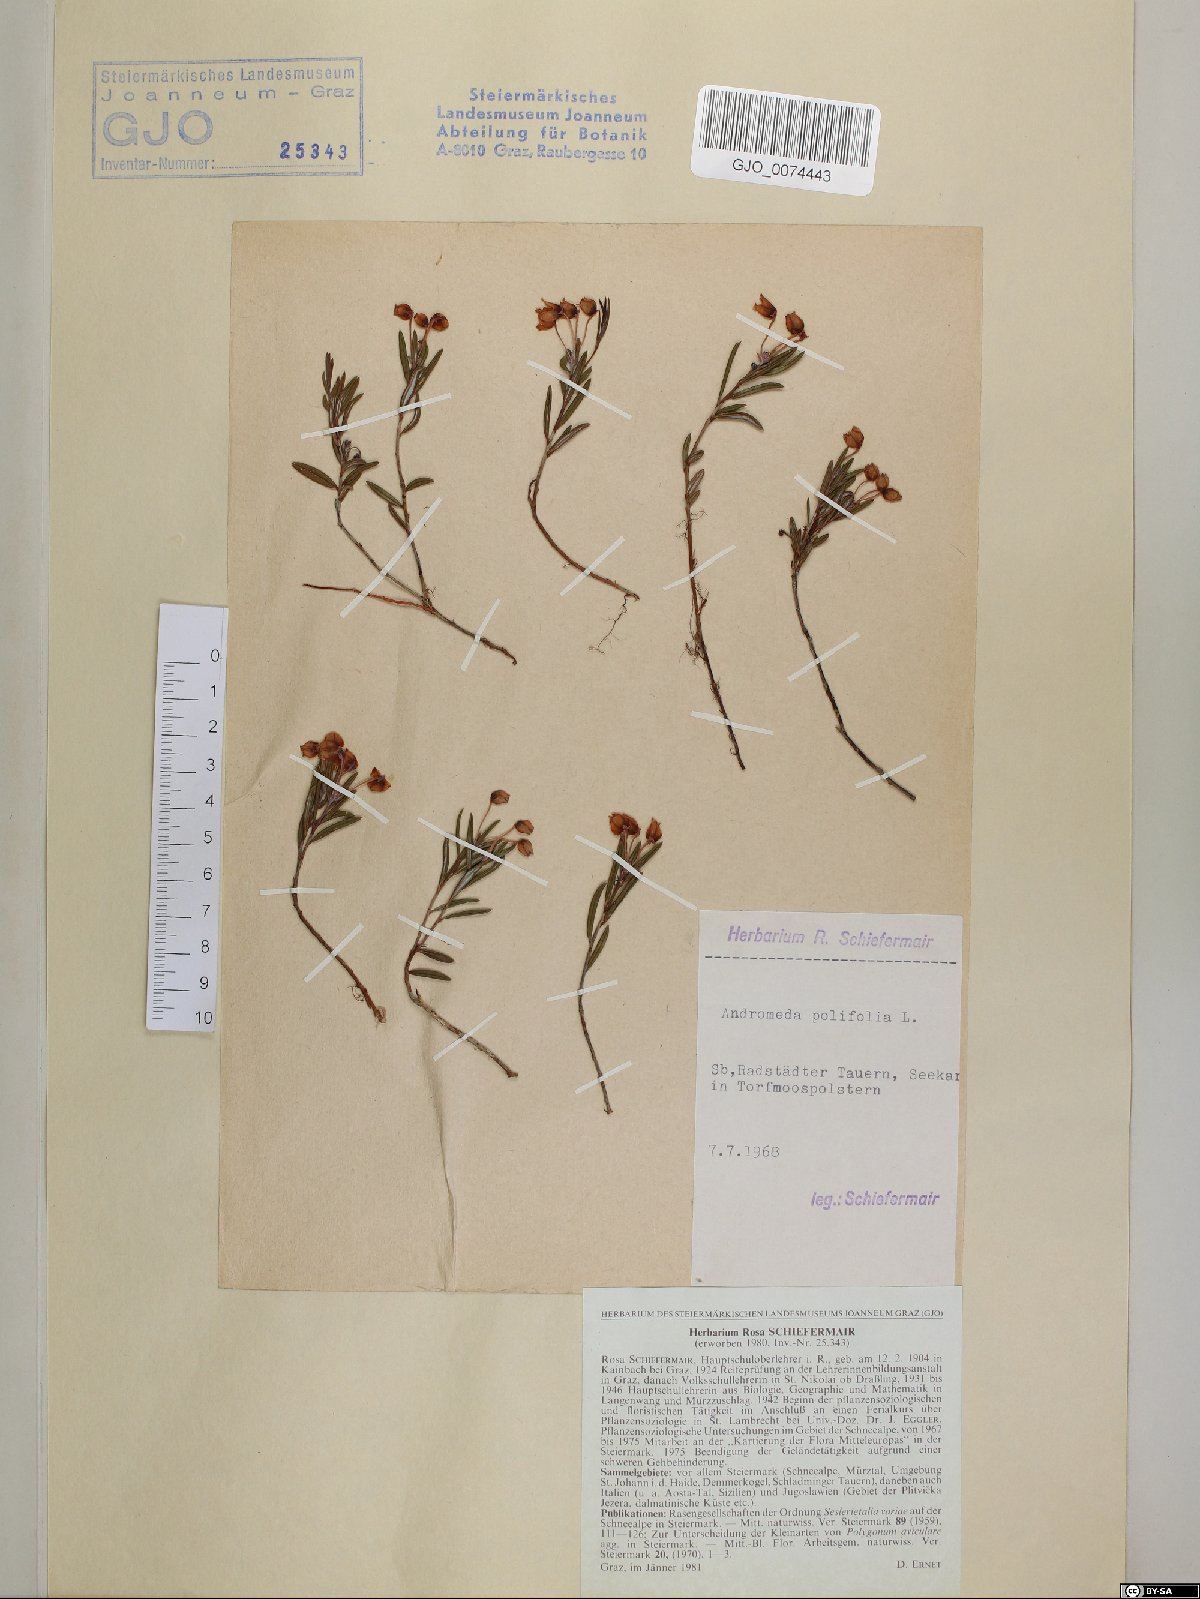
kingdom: Plantae
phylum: Tracheophyta
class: Magnoliopsida
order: Ericales
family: Ericaceae
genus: Andromeda
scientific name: Andromeda polifolia
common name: Bog-rosemary
